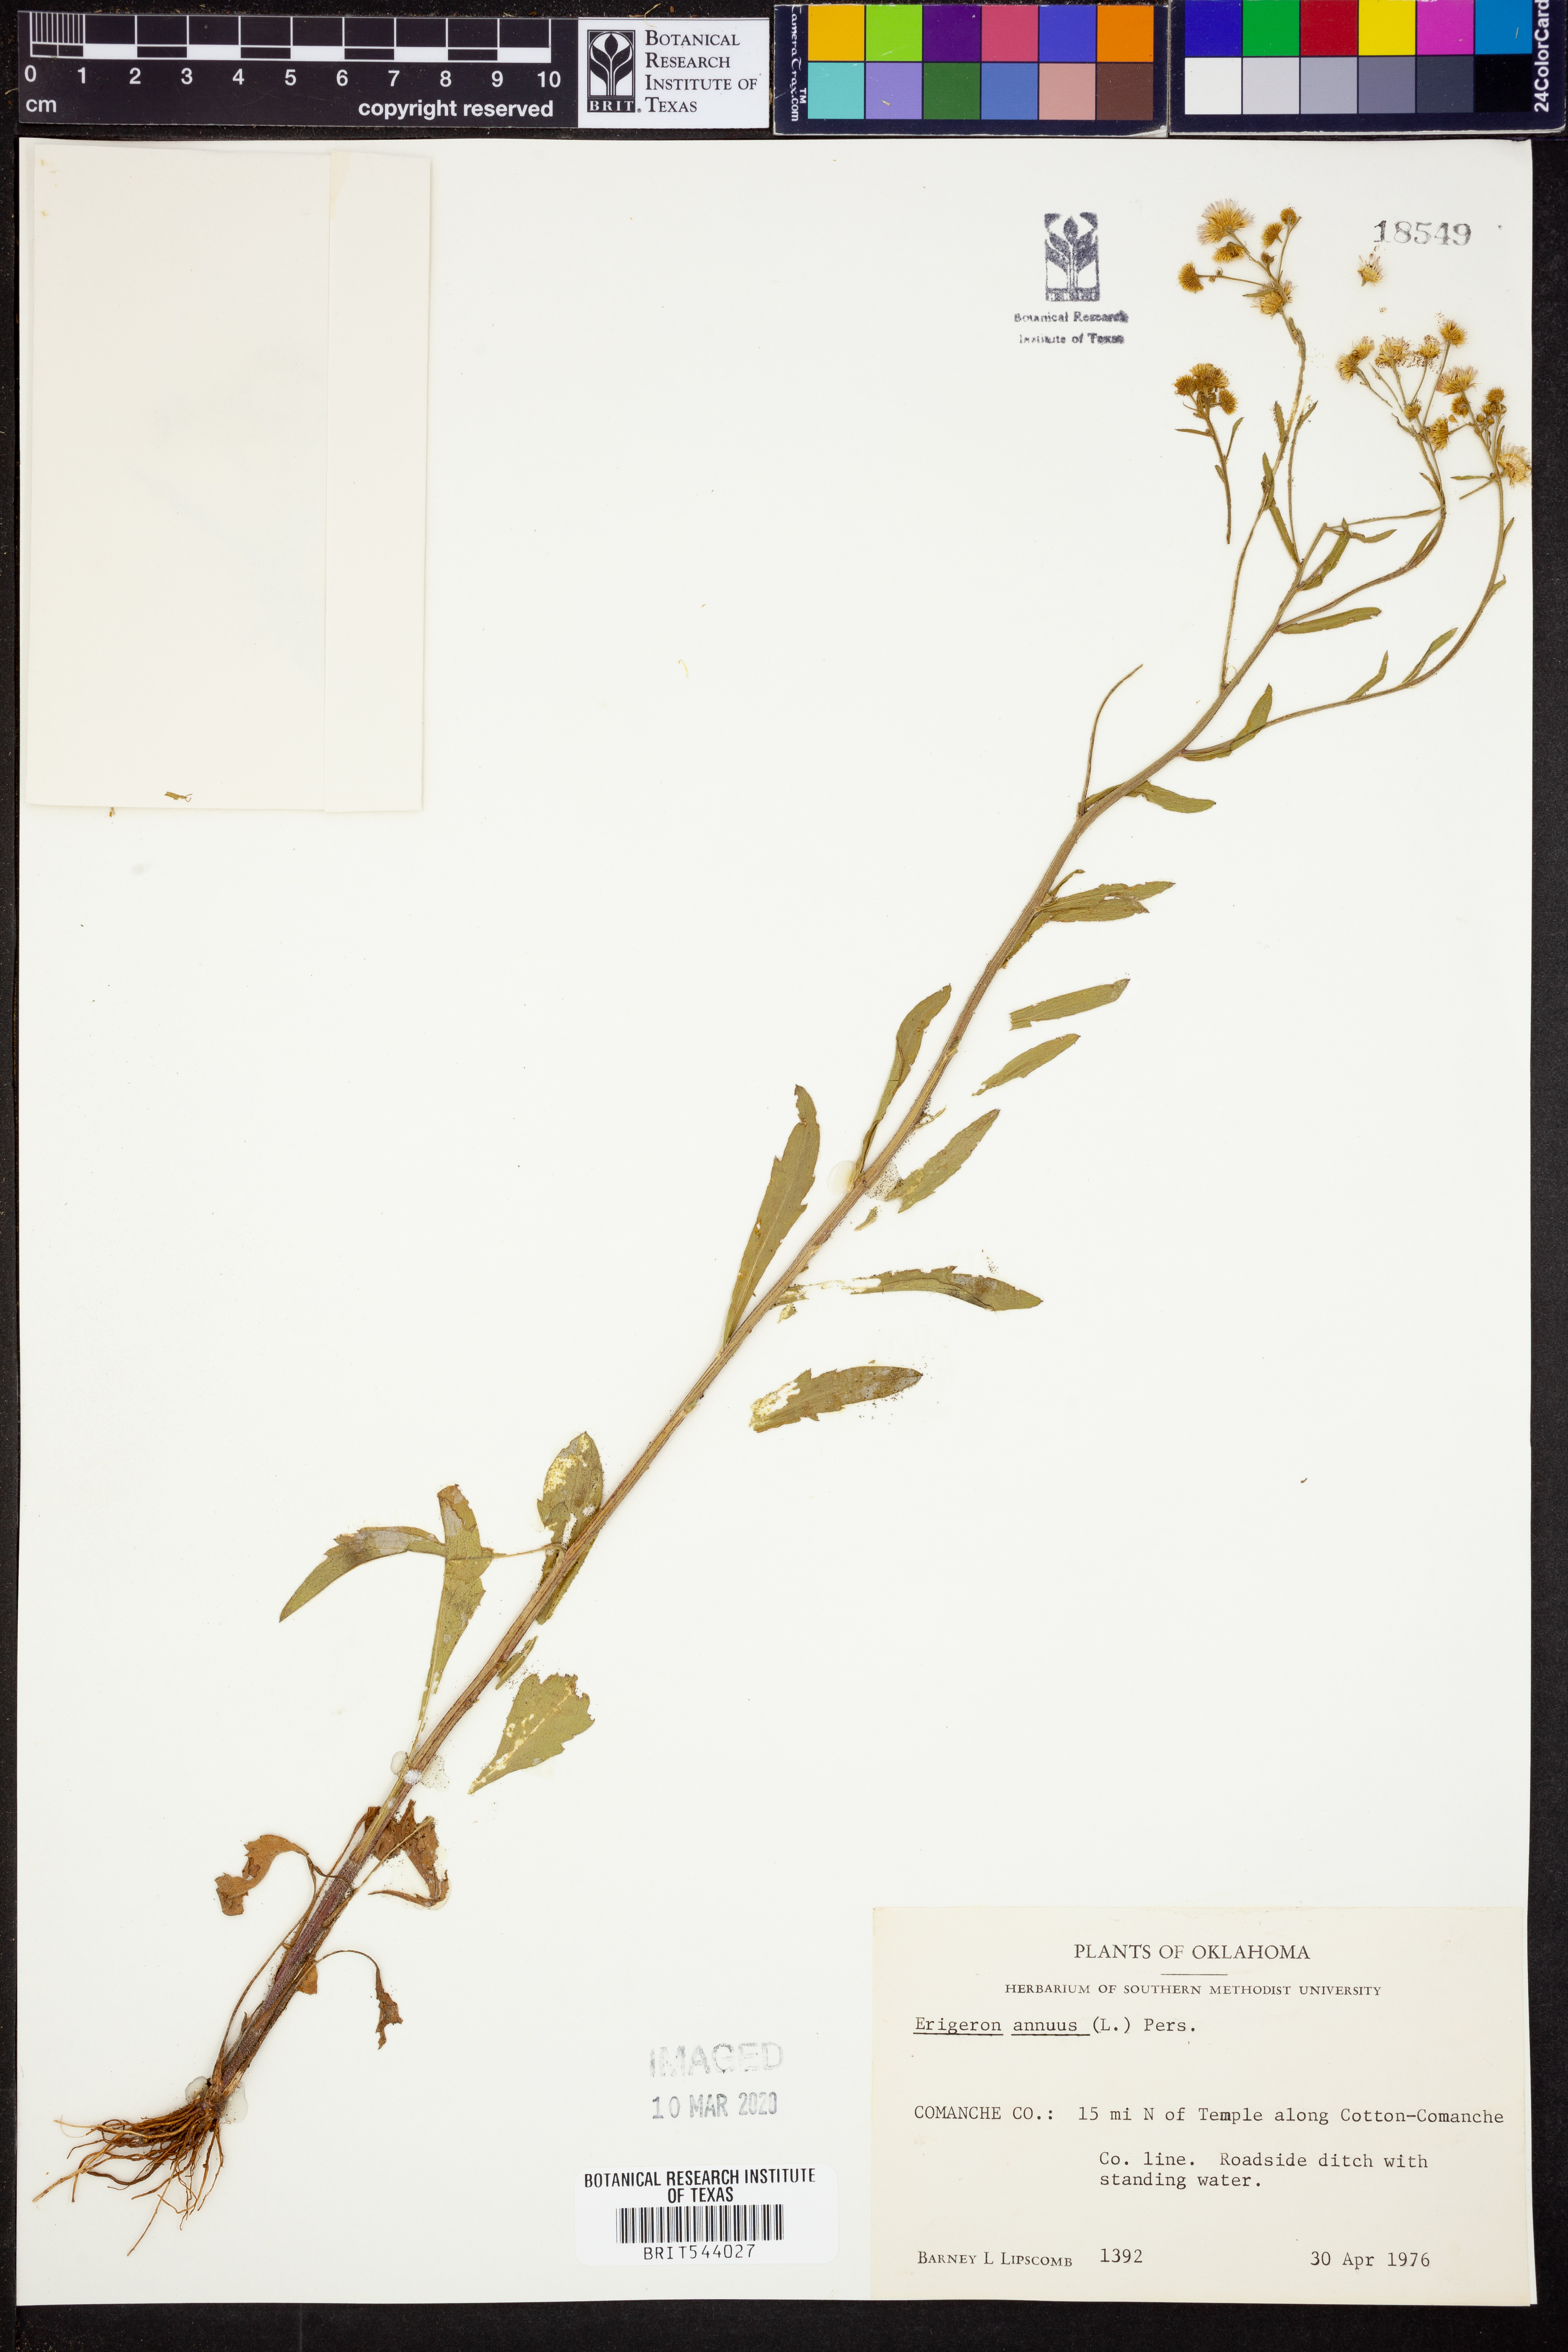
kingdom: Plantae
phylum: Tracheophyta
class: Magnoliopsida
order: Asterales
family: Asteraceae
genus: Erigeron
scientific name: Erigeron annuus
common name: Tall fleabane
